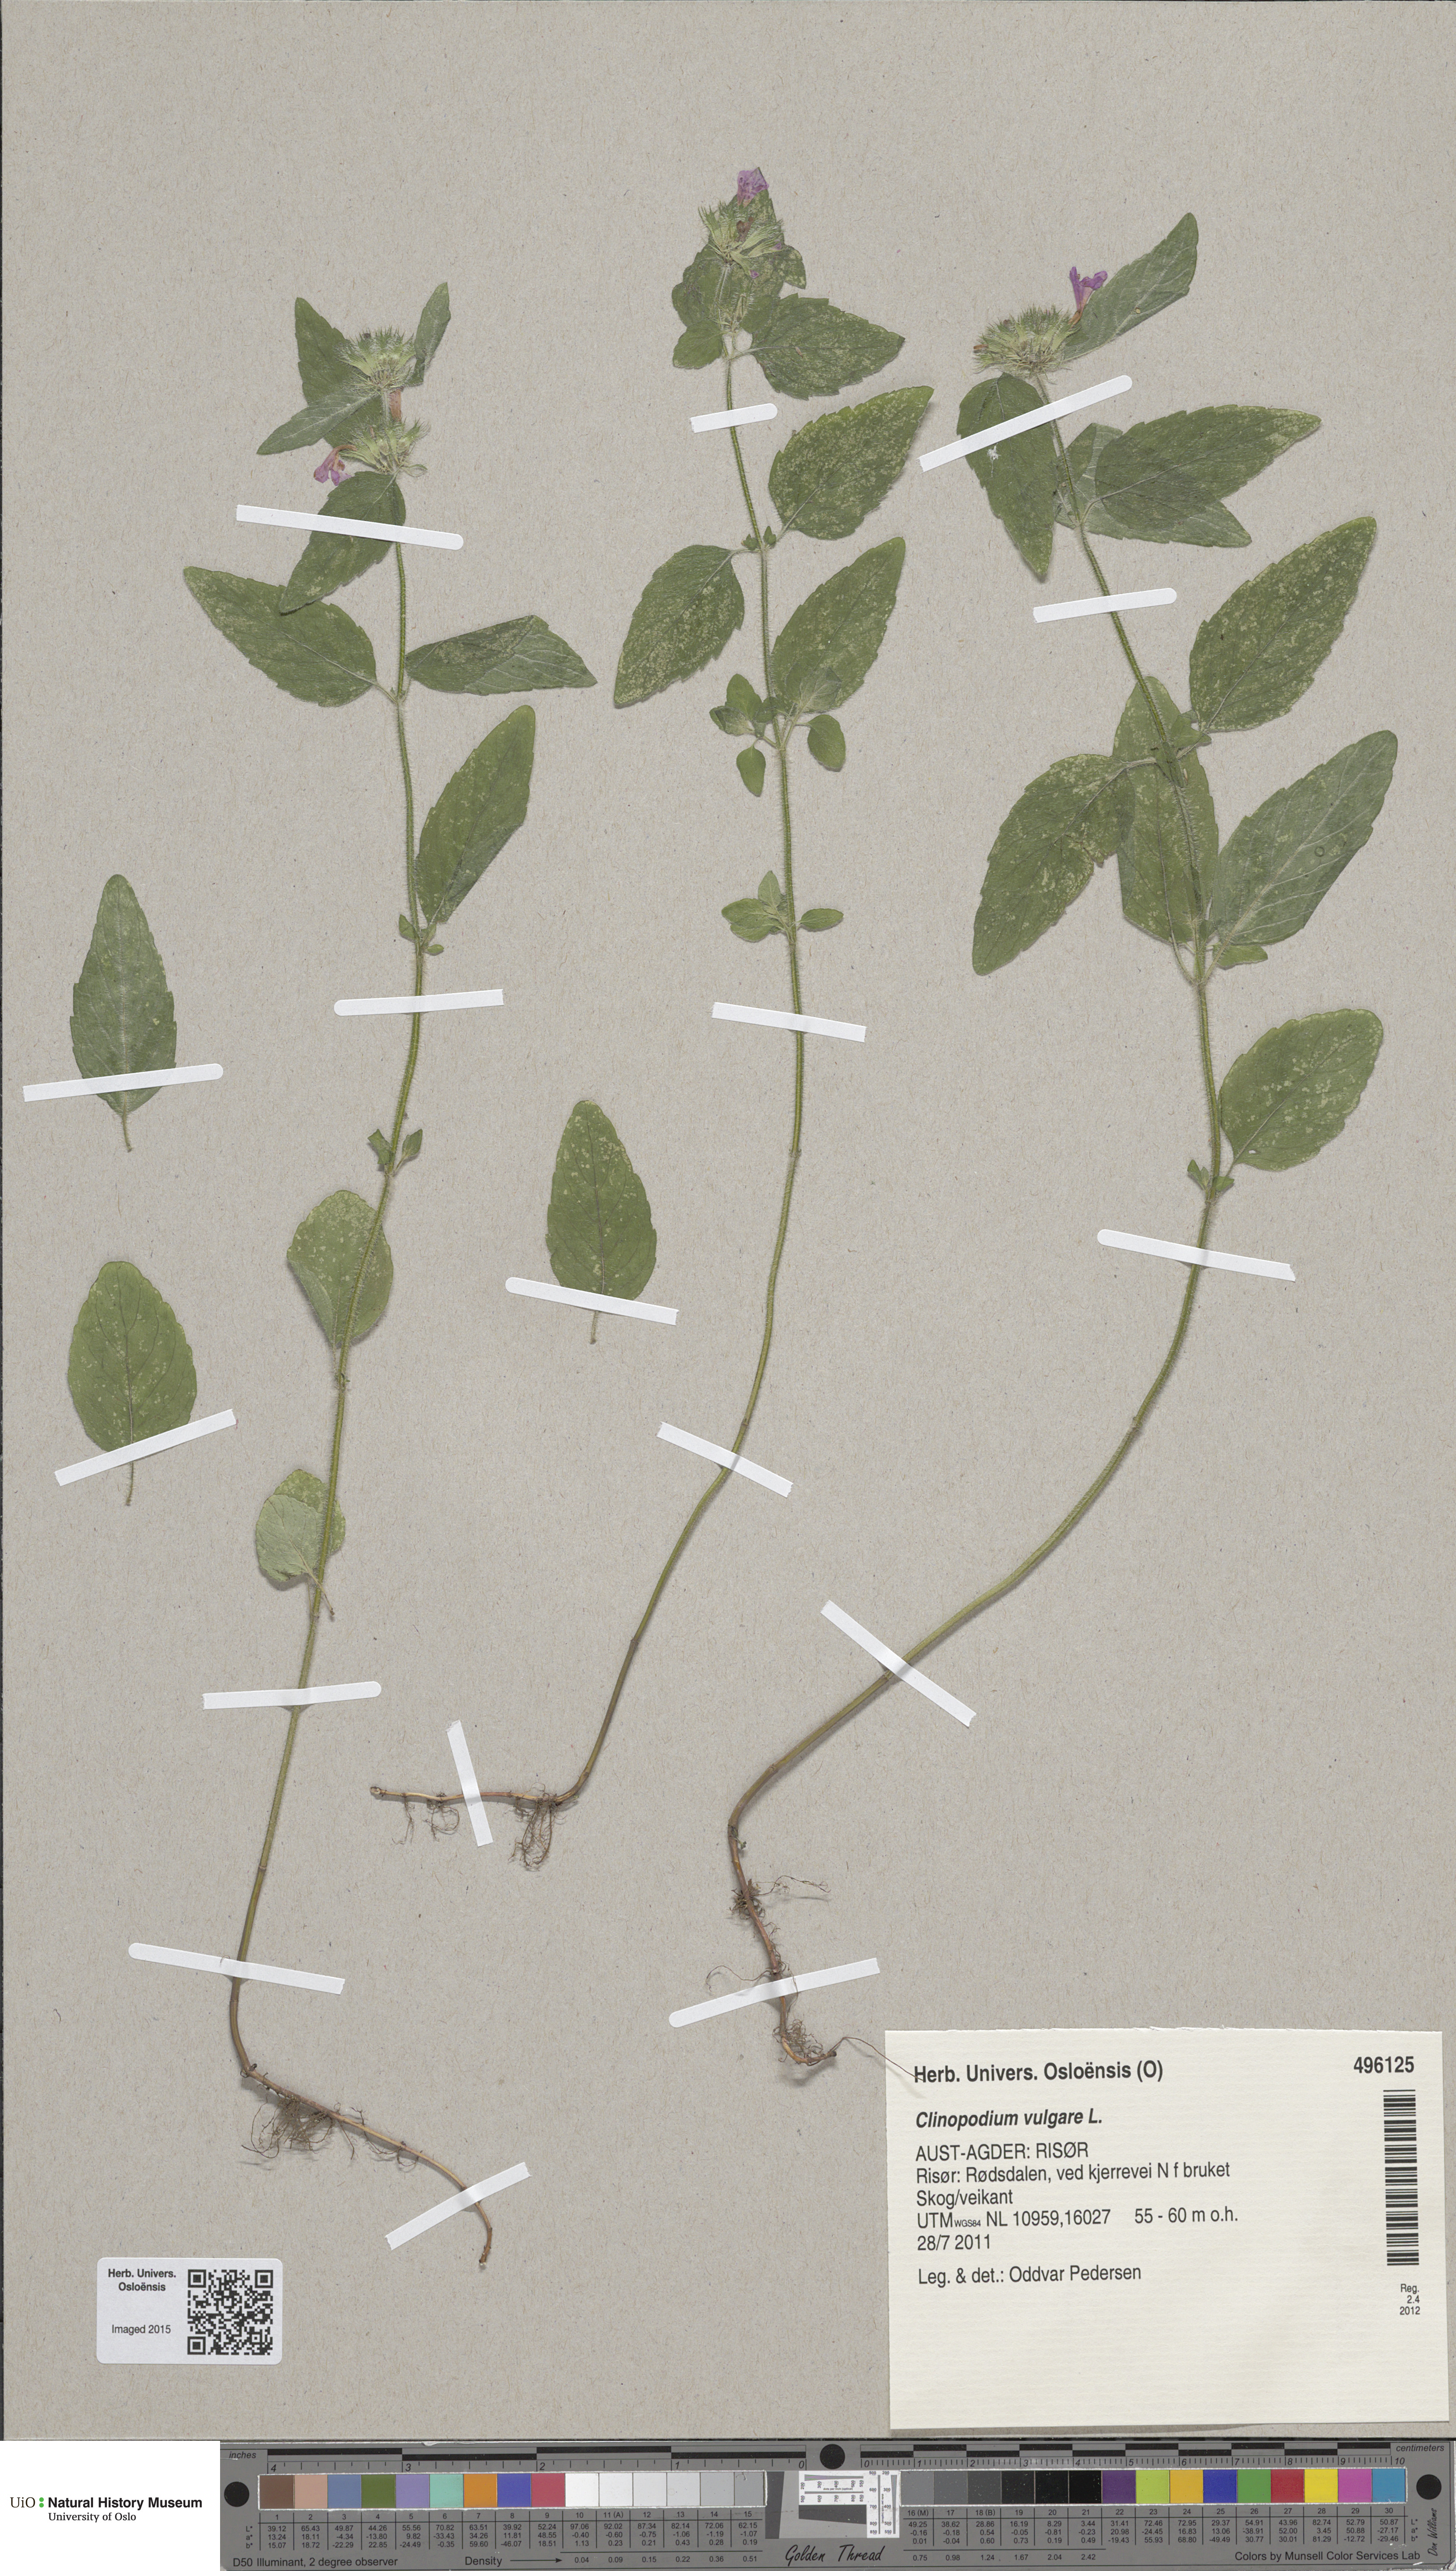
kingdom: Plantae
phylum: Tracheophyta
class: Magnoliopsida
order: Lamiales
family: Lamiaceae
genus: Clinopodium
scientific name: Clinopodium vulgare
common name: Wild basil
